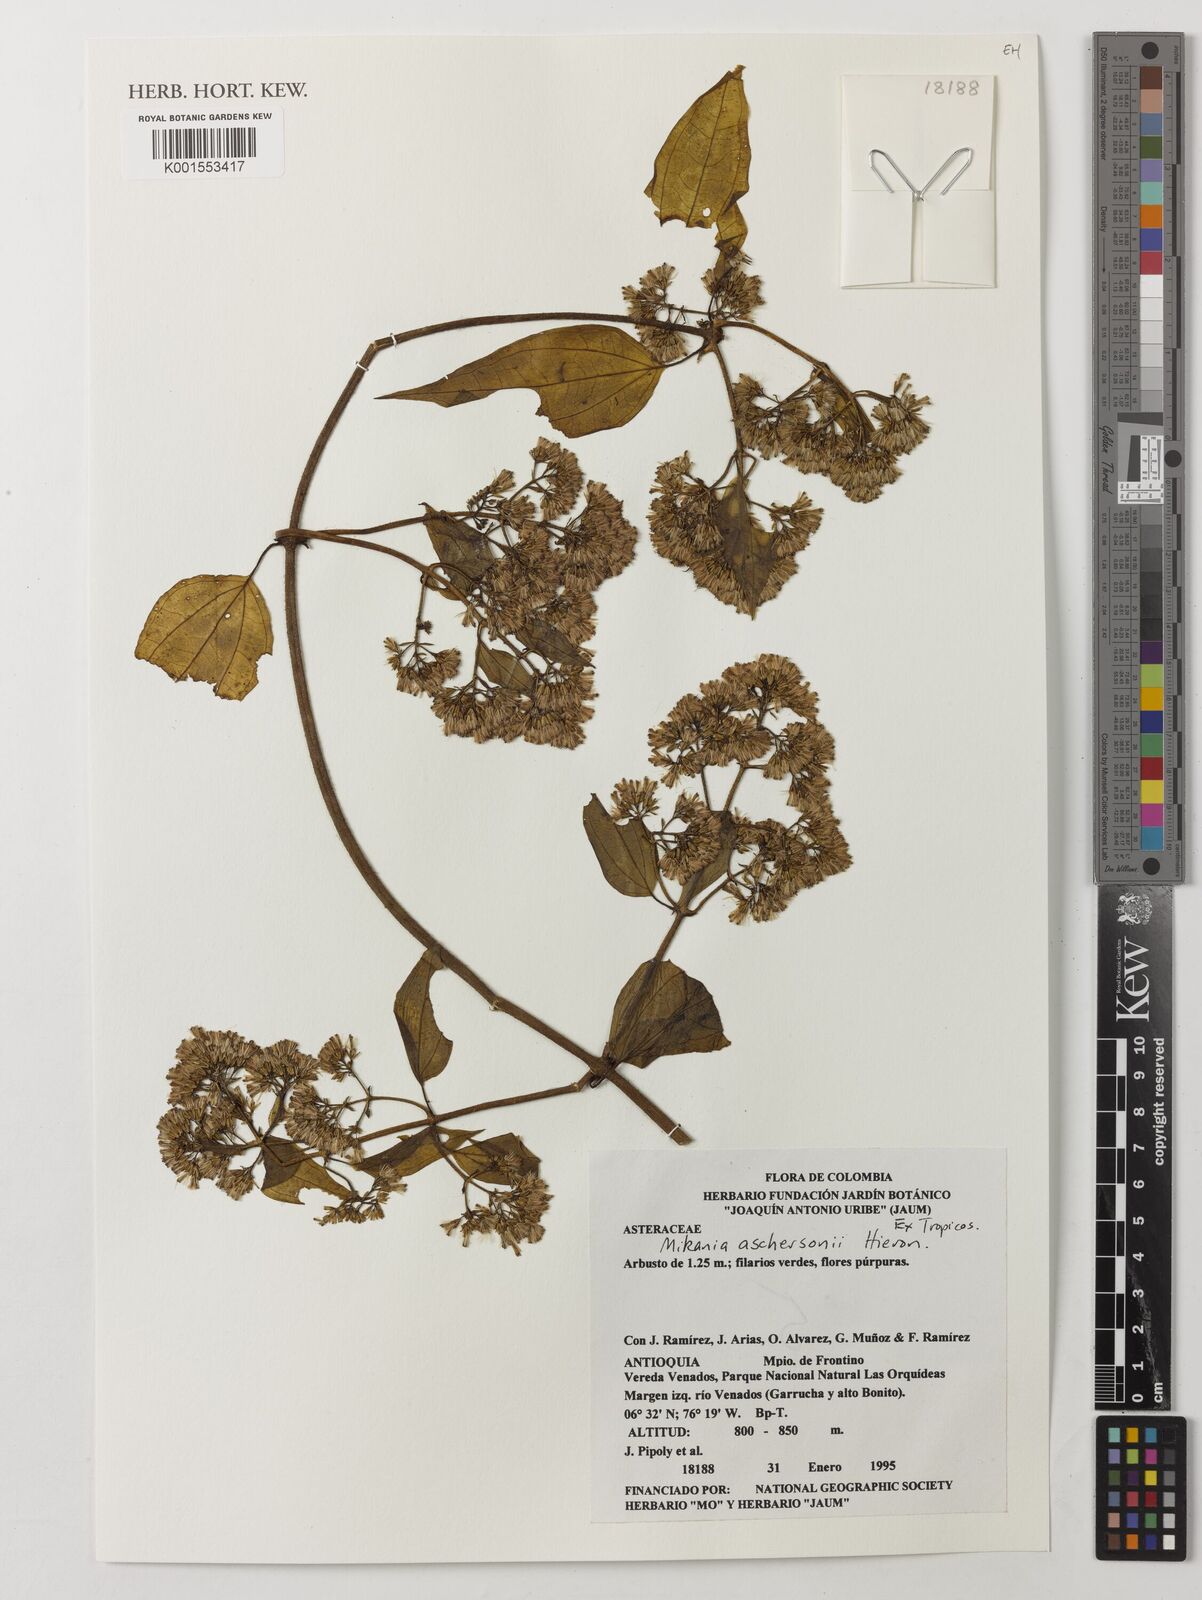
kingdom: Plantae
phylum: Tracheophyta
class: Magnoliopsida
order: Asterales
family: Asteraceae
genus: Mikania
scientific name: Mikania aschersonii
